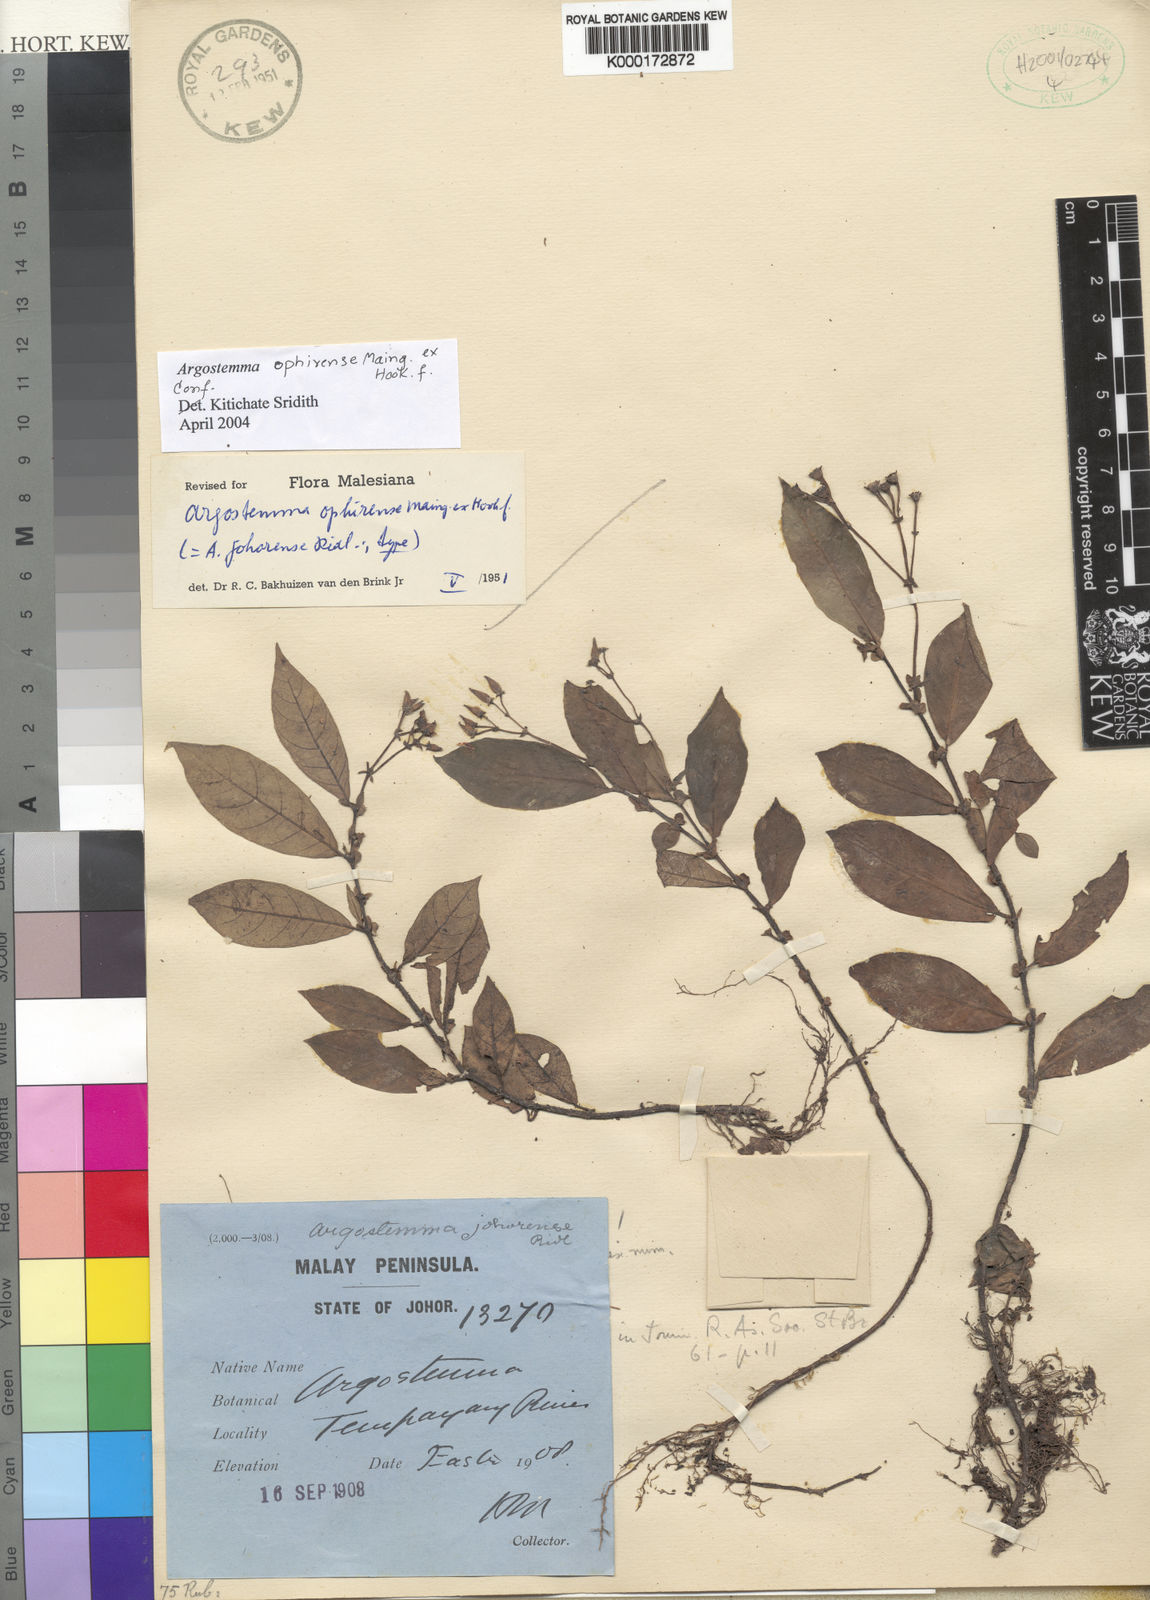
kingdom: Plantae
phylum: Tracheophyta
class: Magnoliopsida
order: Gentianales
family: Rubiaceae
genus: Argostemma
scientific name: Argostemma ophirense
